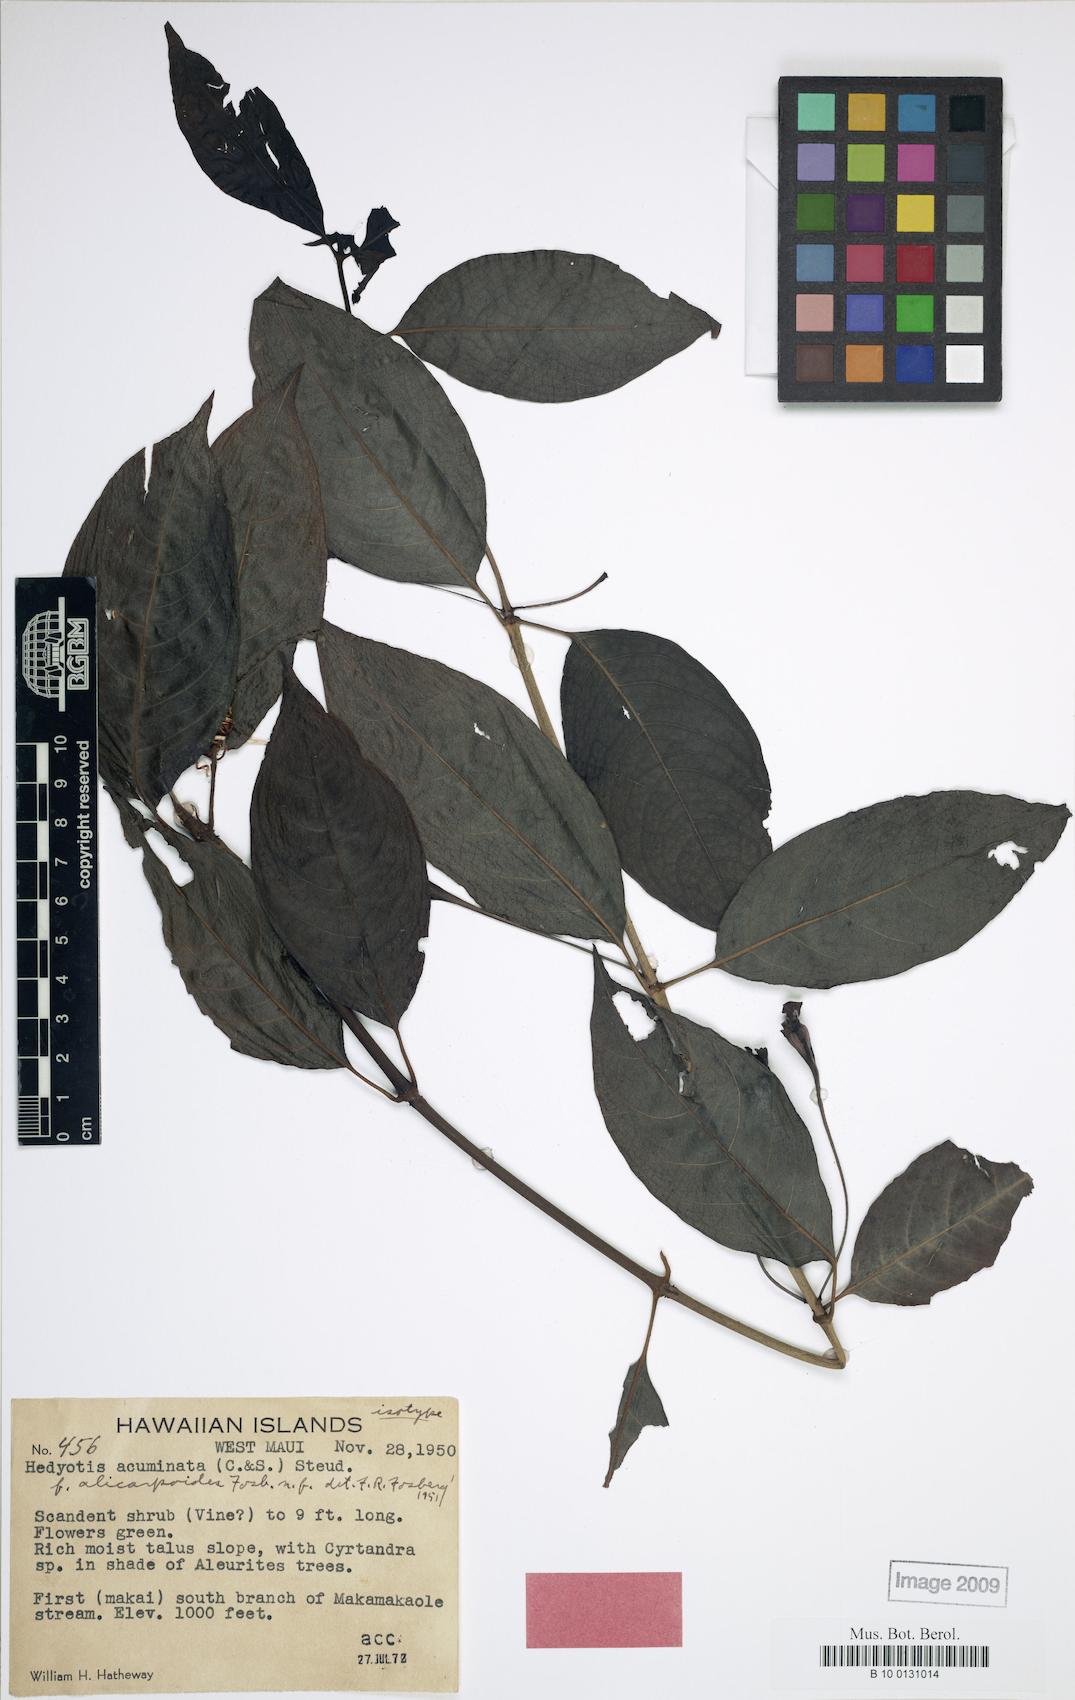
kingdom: Plantae
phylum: Tracheophyta
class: Magnoliopsida
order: Gentianales
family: Rubiaceae
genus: Kadua
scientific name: Kadua acuminata
